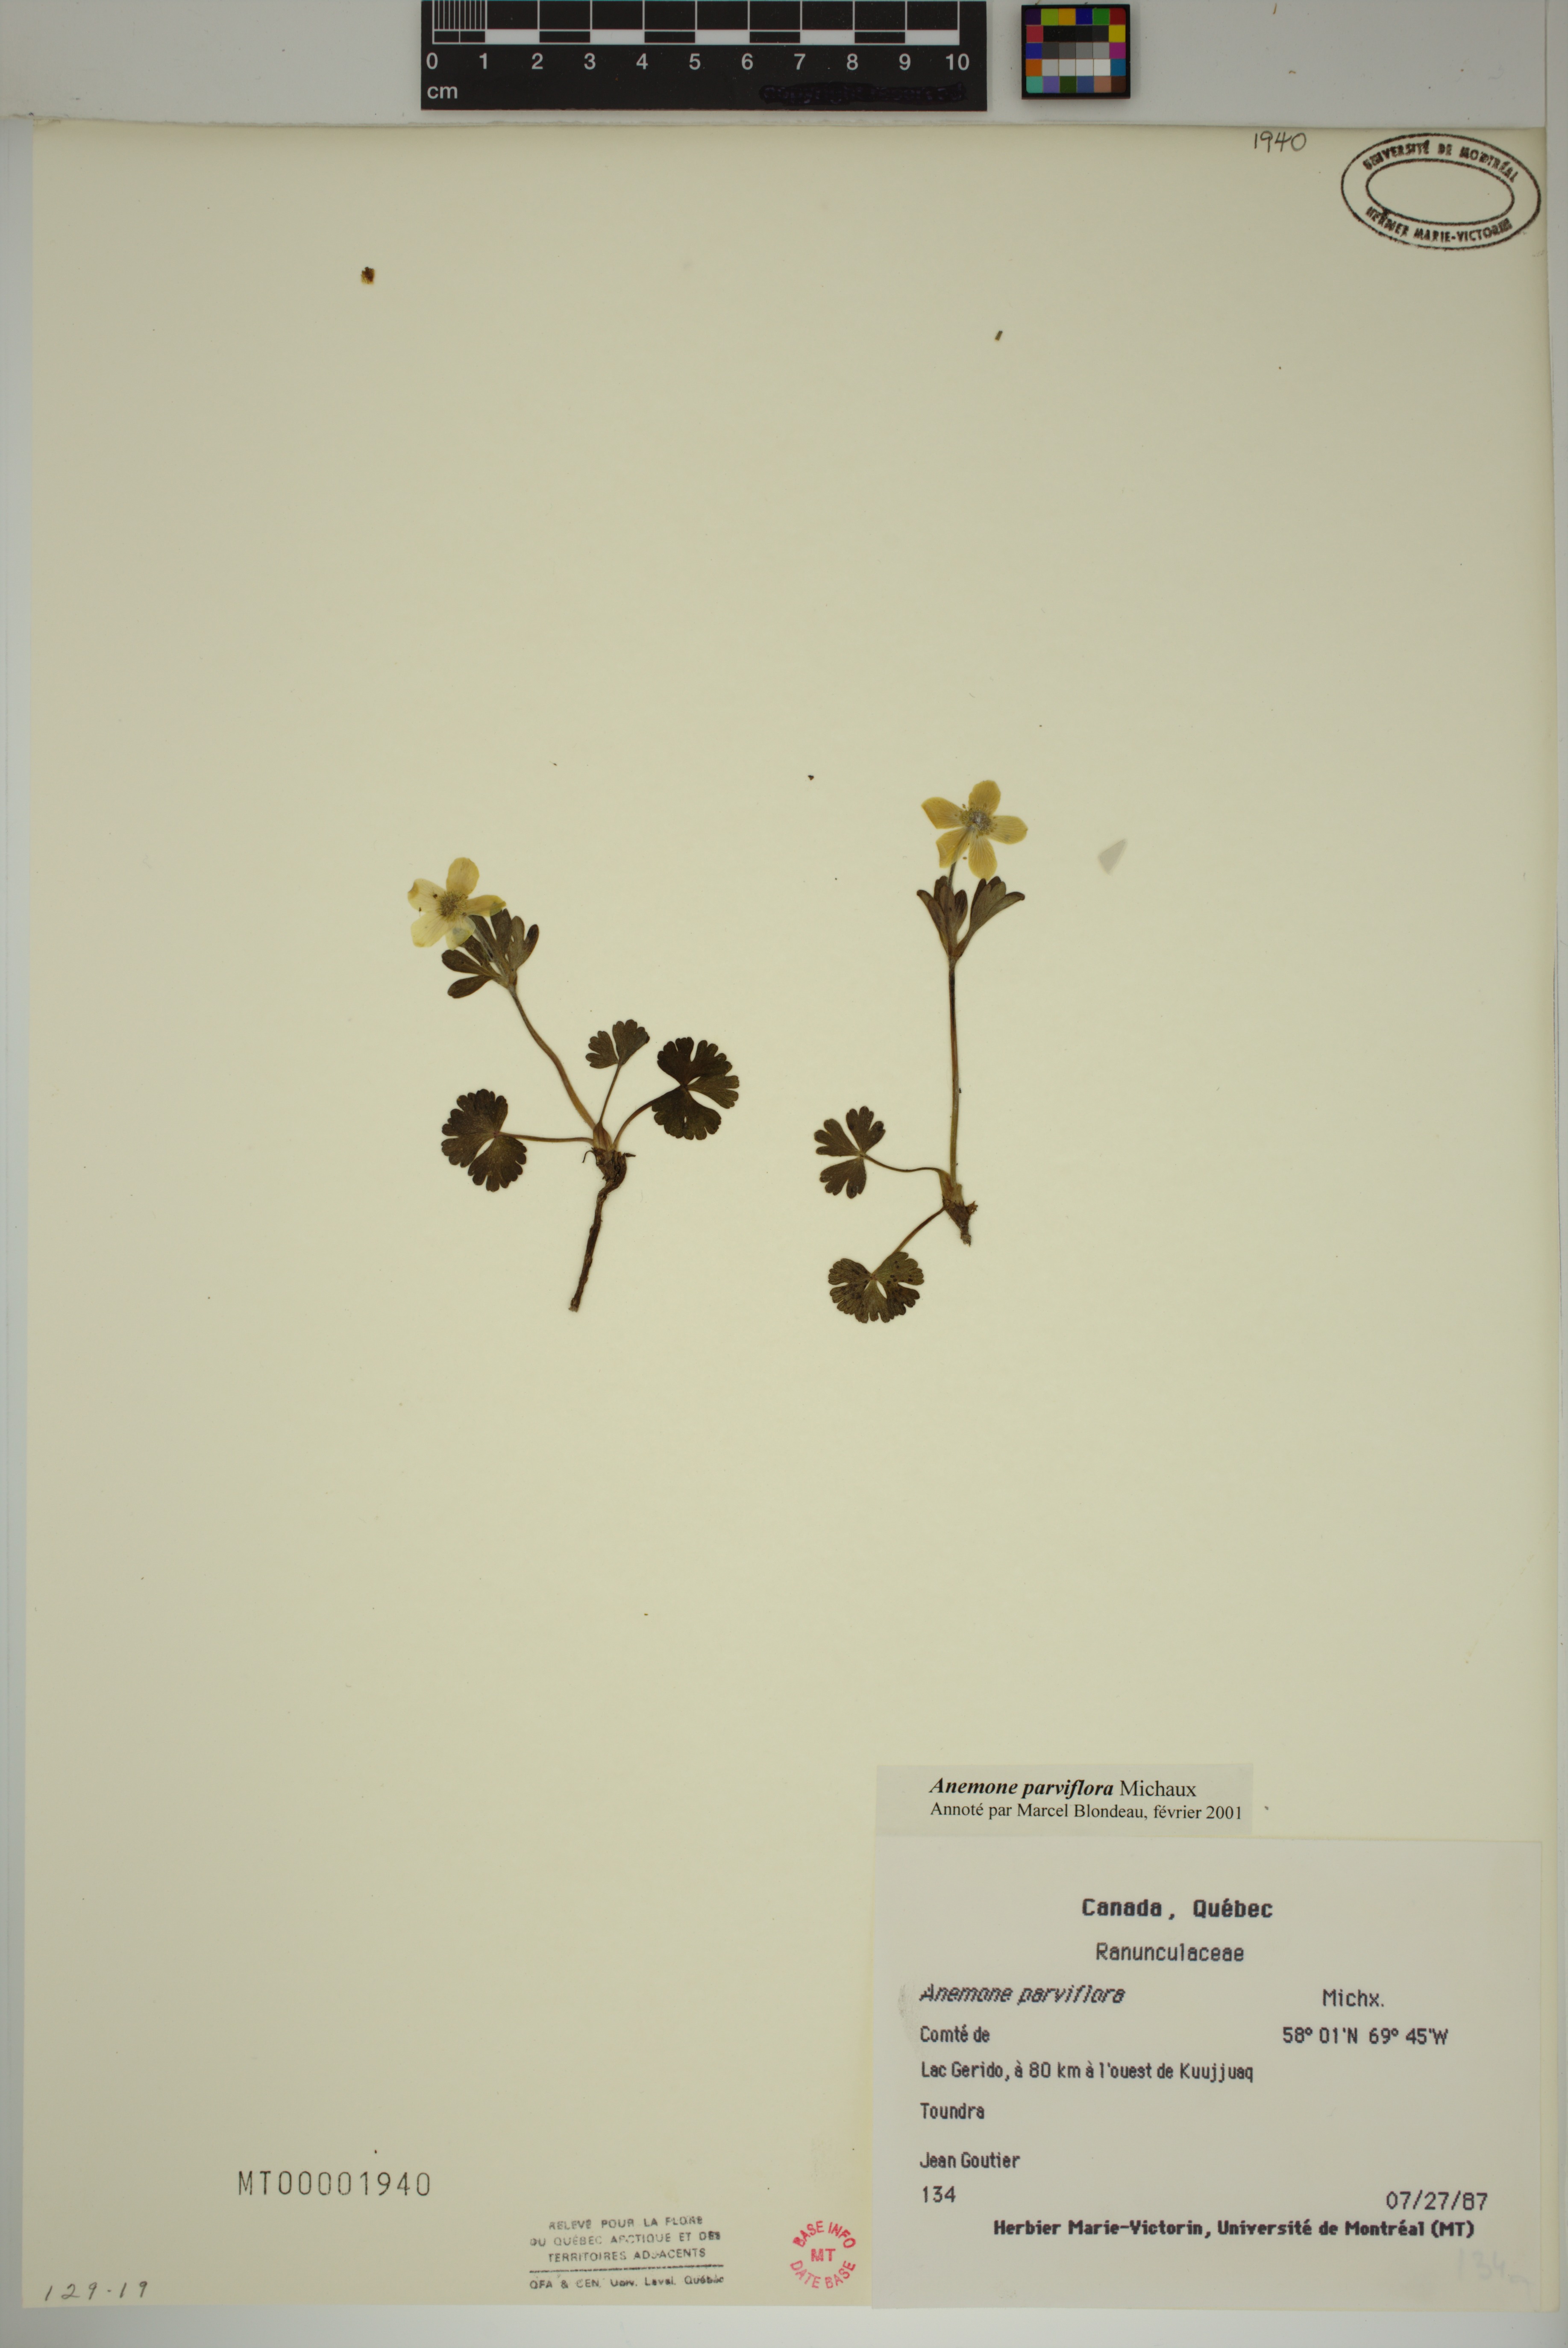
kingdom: Plantae
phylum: Tracheophyta
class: Magnoliopsida
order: Ranunculales
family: Ranunculaceae
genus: Anemone
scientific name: Anemone parviflora
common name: Northern anemone
